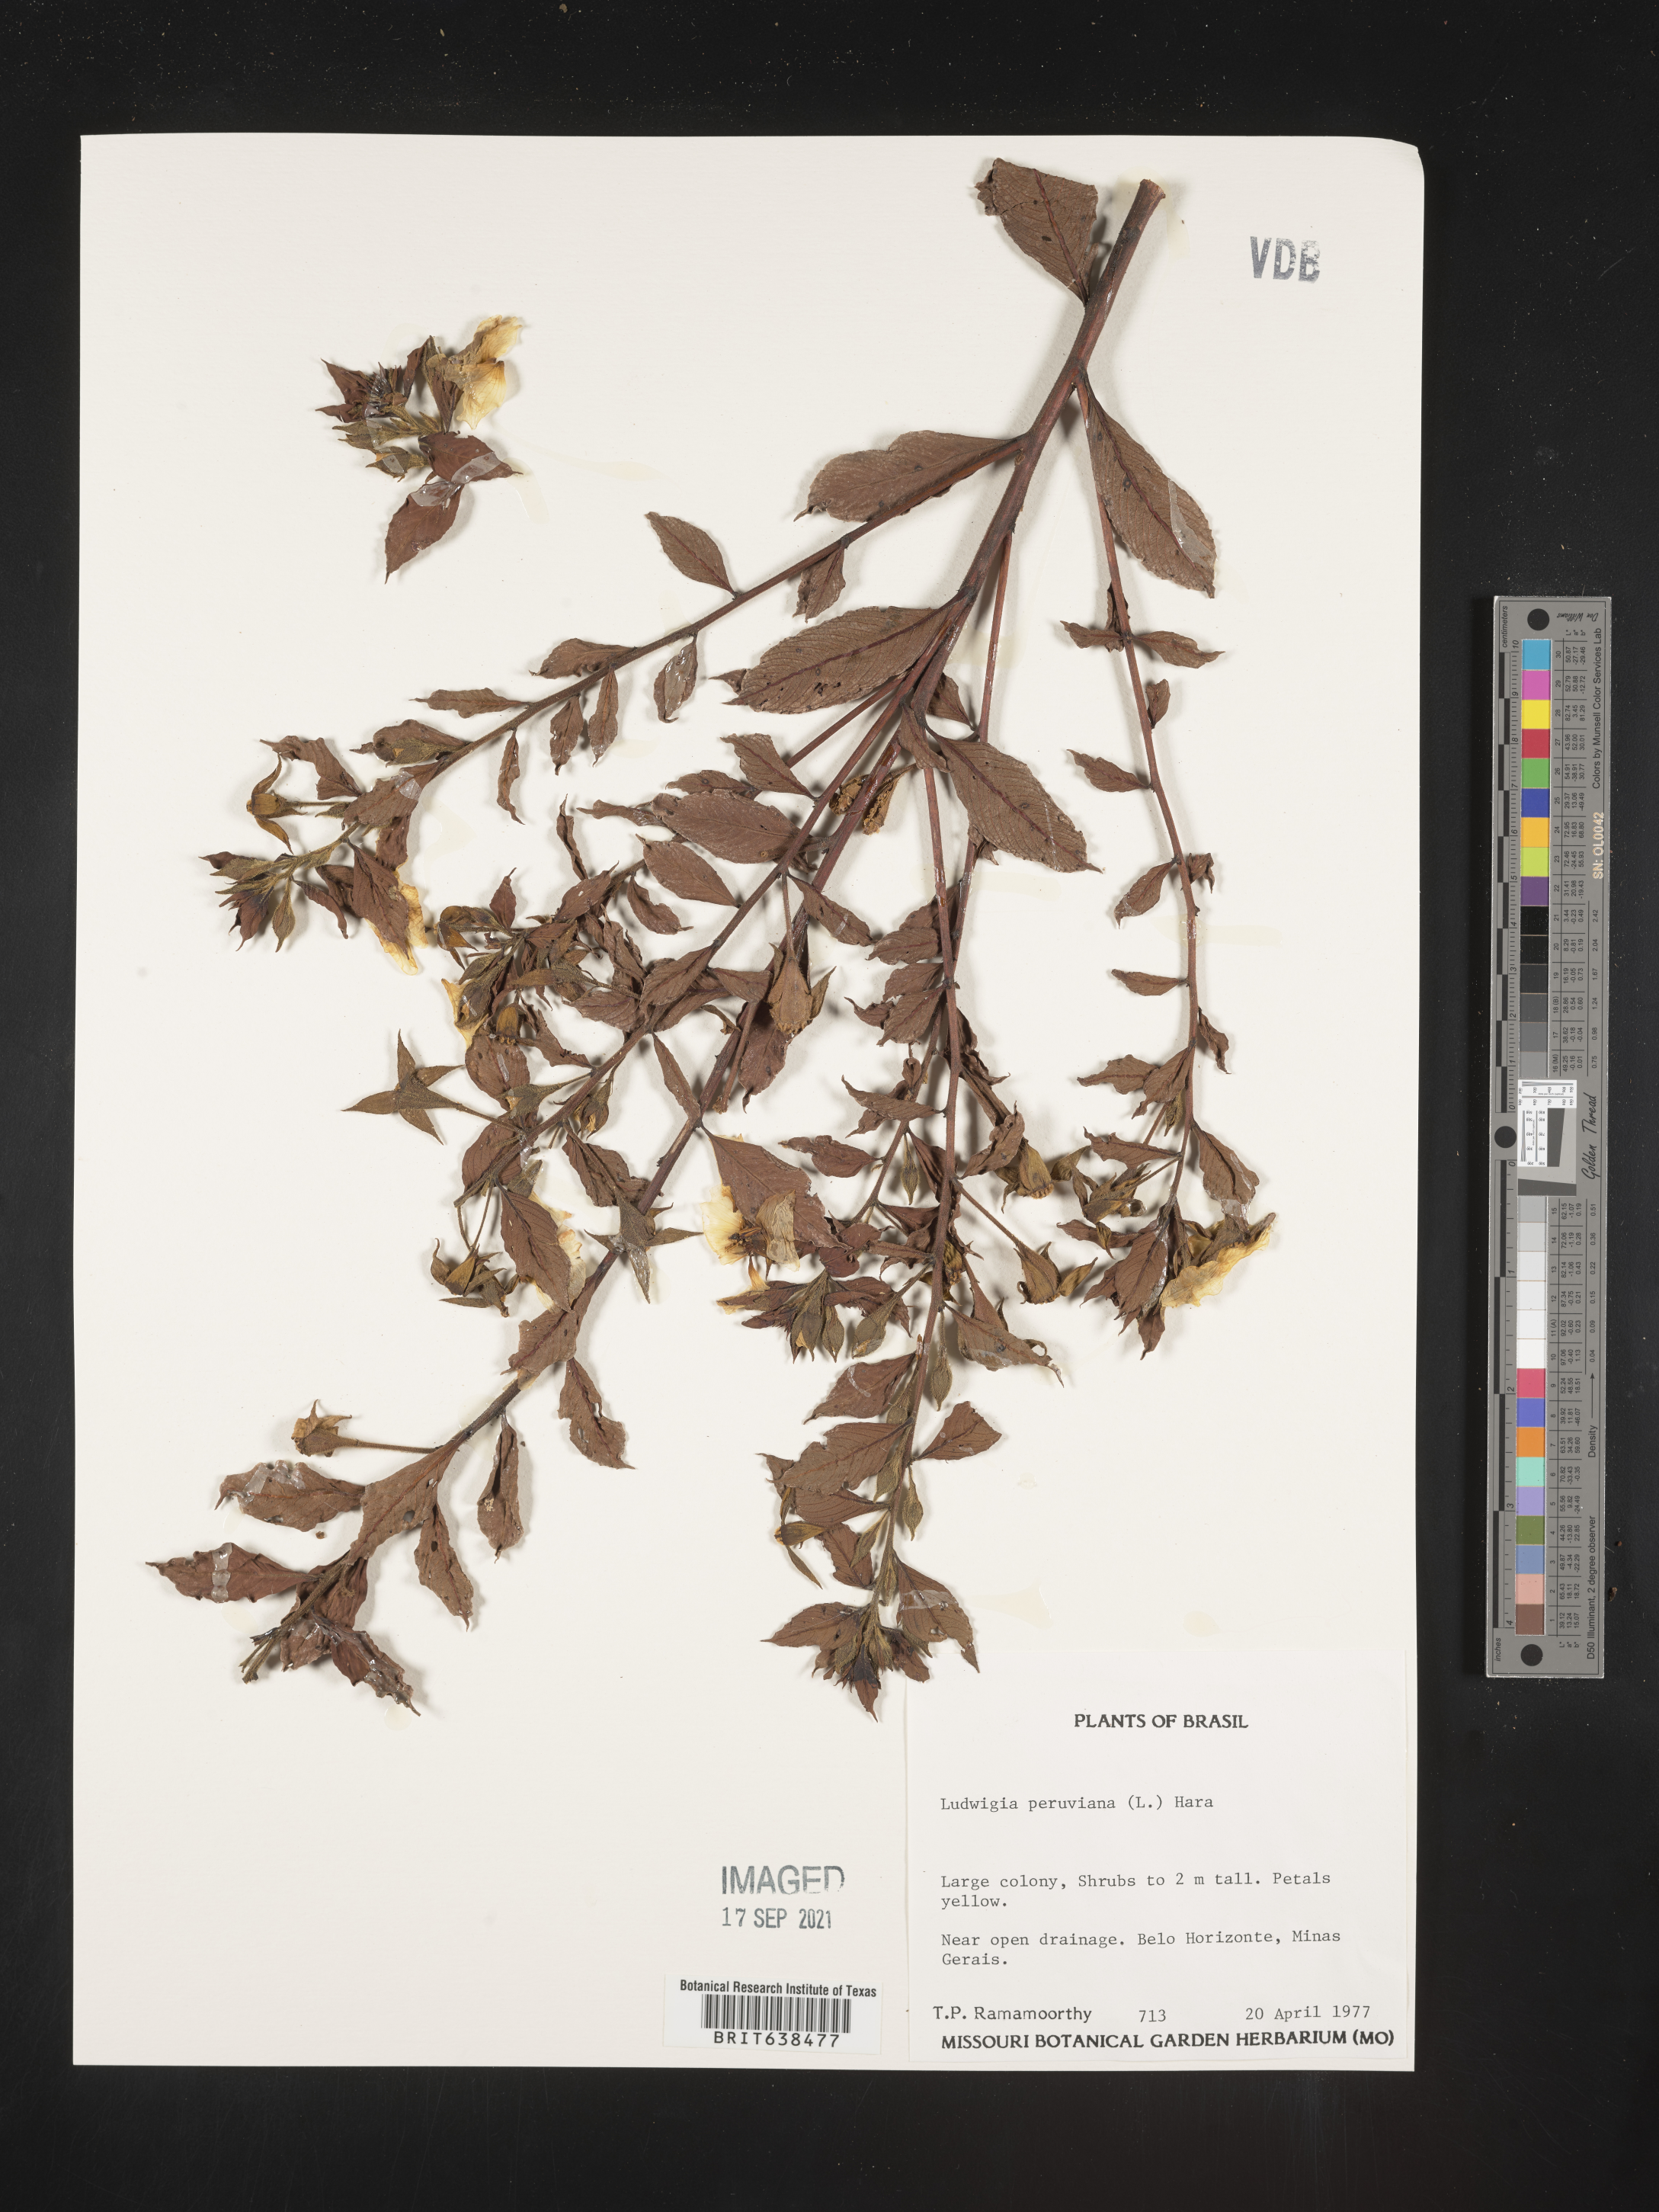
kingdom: Plantae
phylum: Tracheophyta
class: Magnoliopsida
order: Myrtales
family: Onagraceae
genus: Ludwigia
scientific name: Ludwigia
